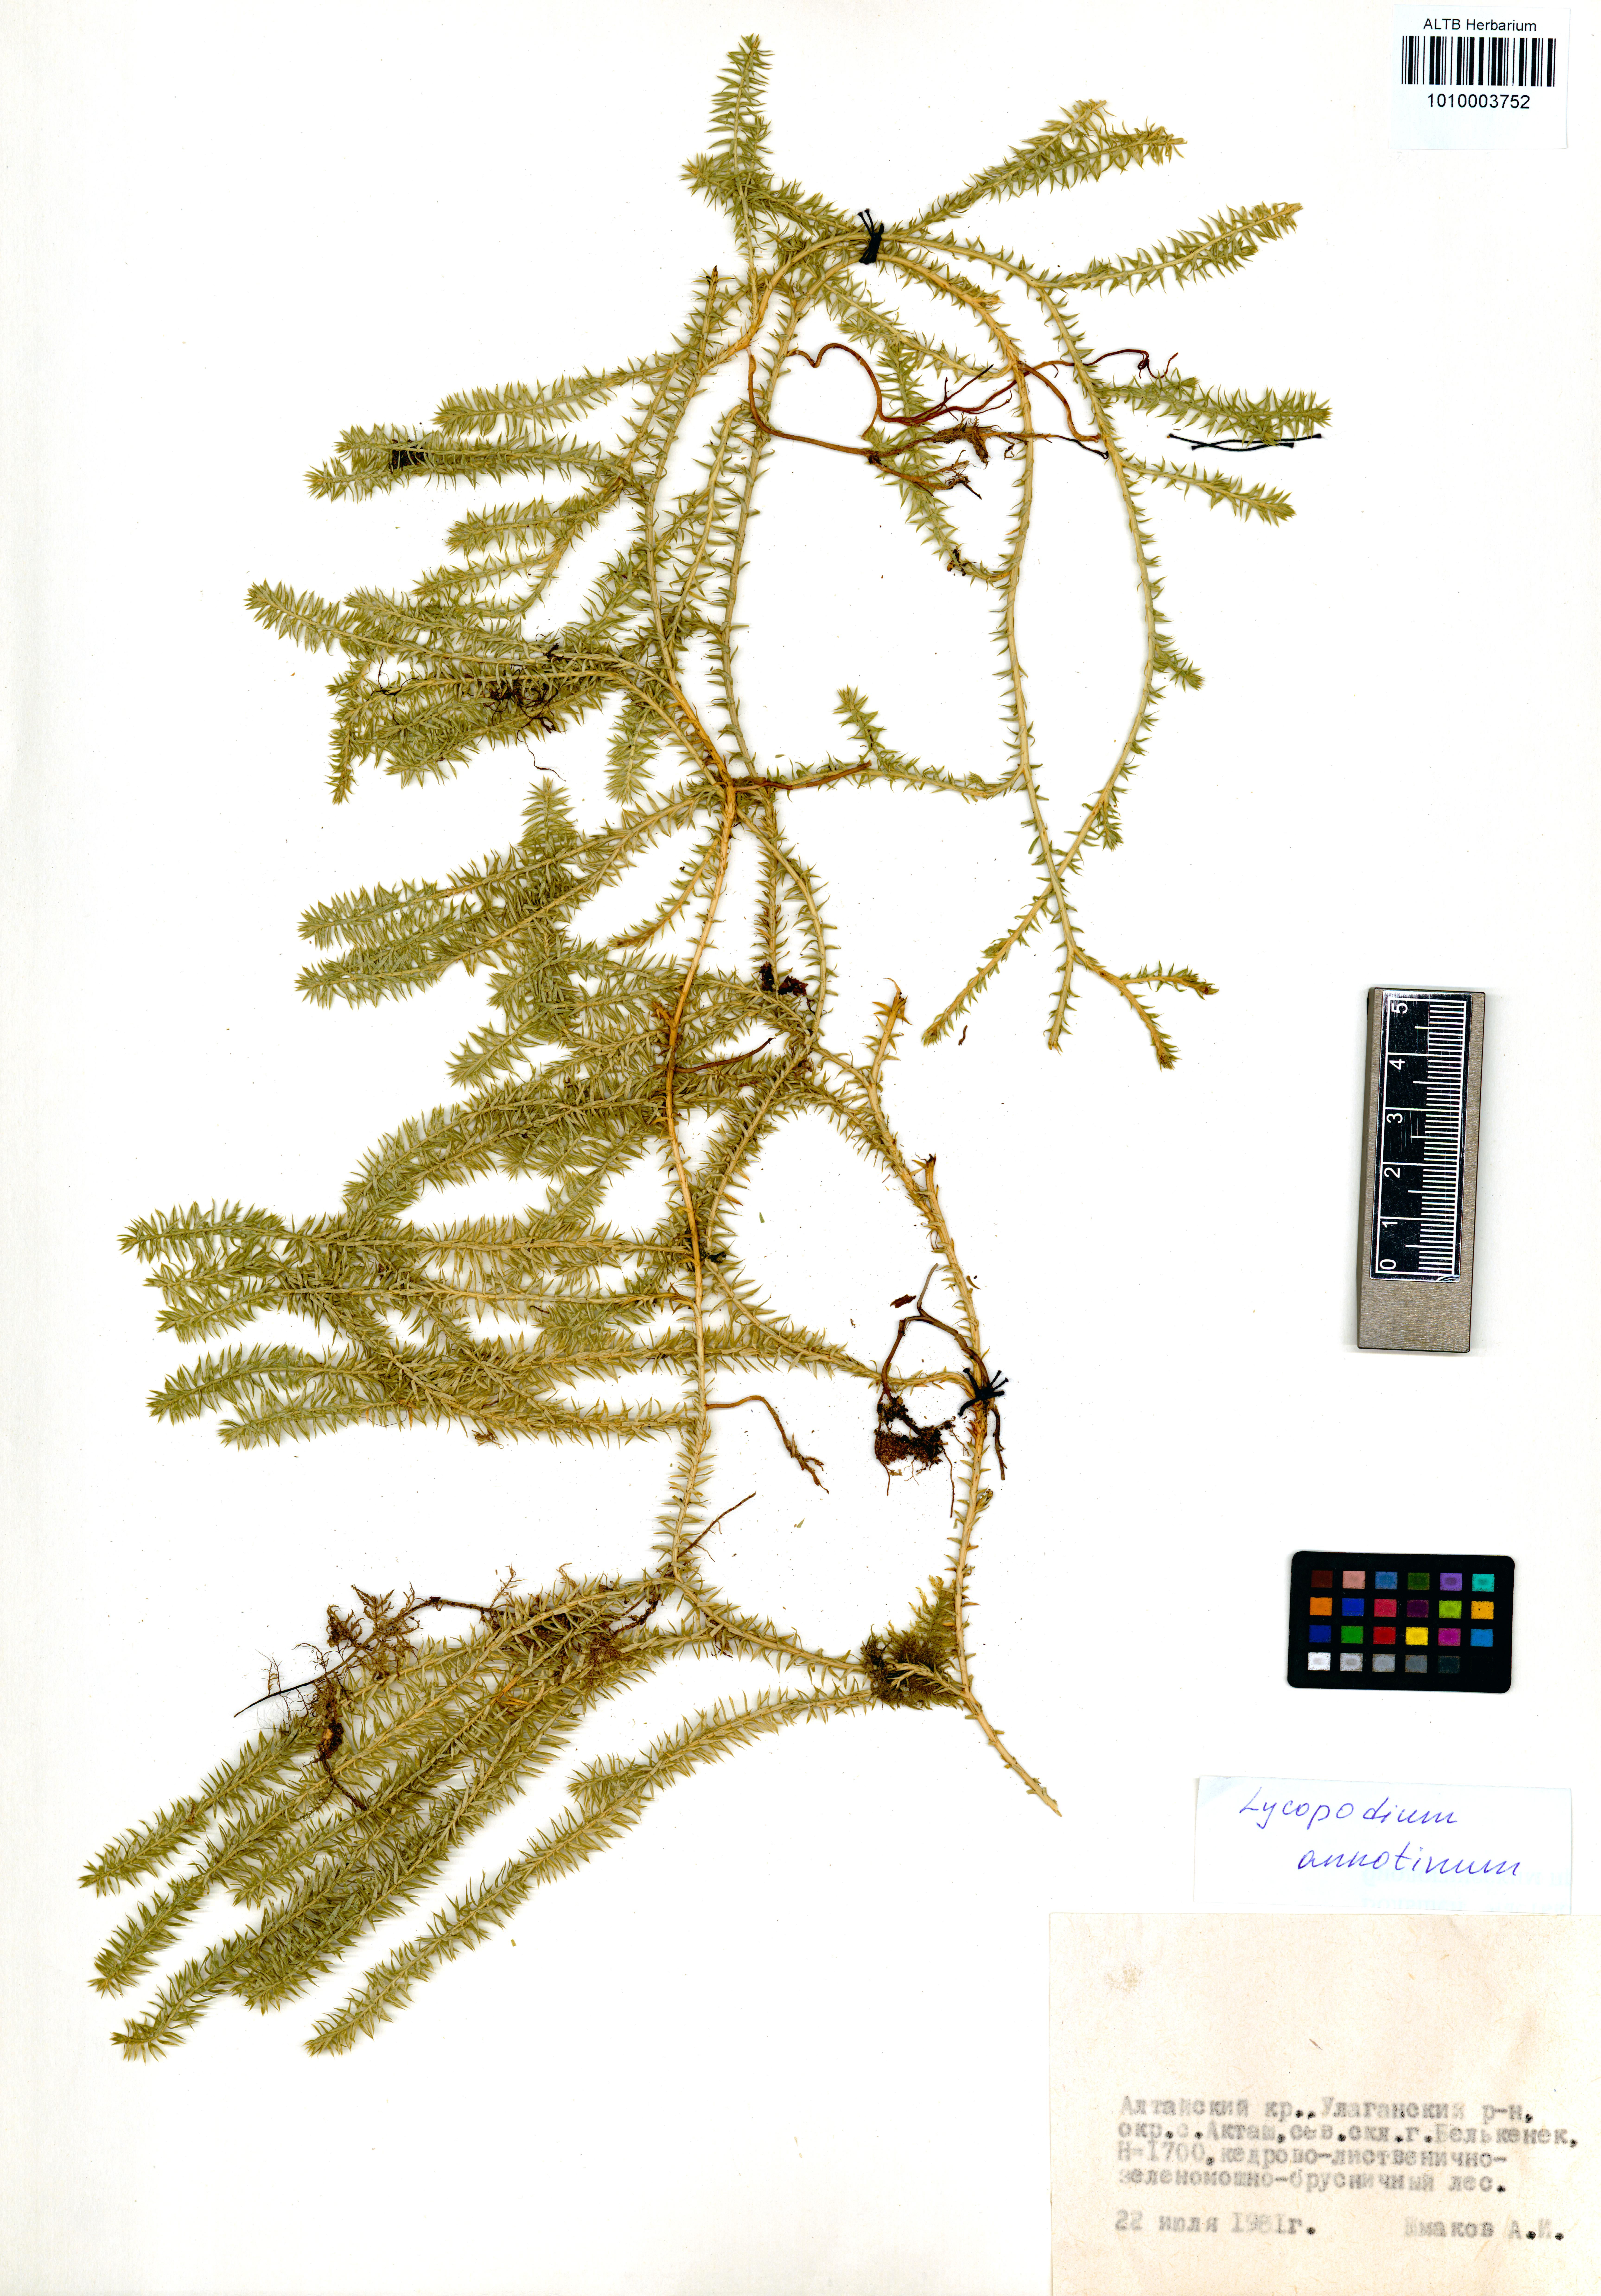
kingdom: Plantae
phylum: Tracheophyta
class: Lycopodiopsida
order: Lycopodiales
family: Lycopodiaceae
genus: Spinulum
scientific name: Spinulum annotinum
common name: Interrupted club-moss
